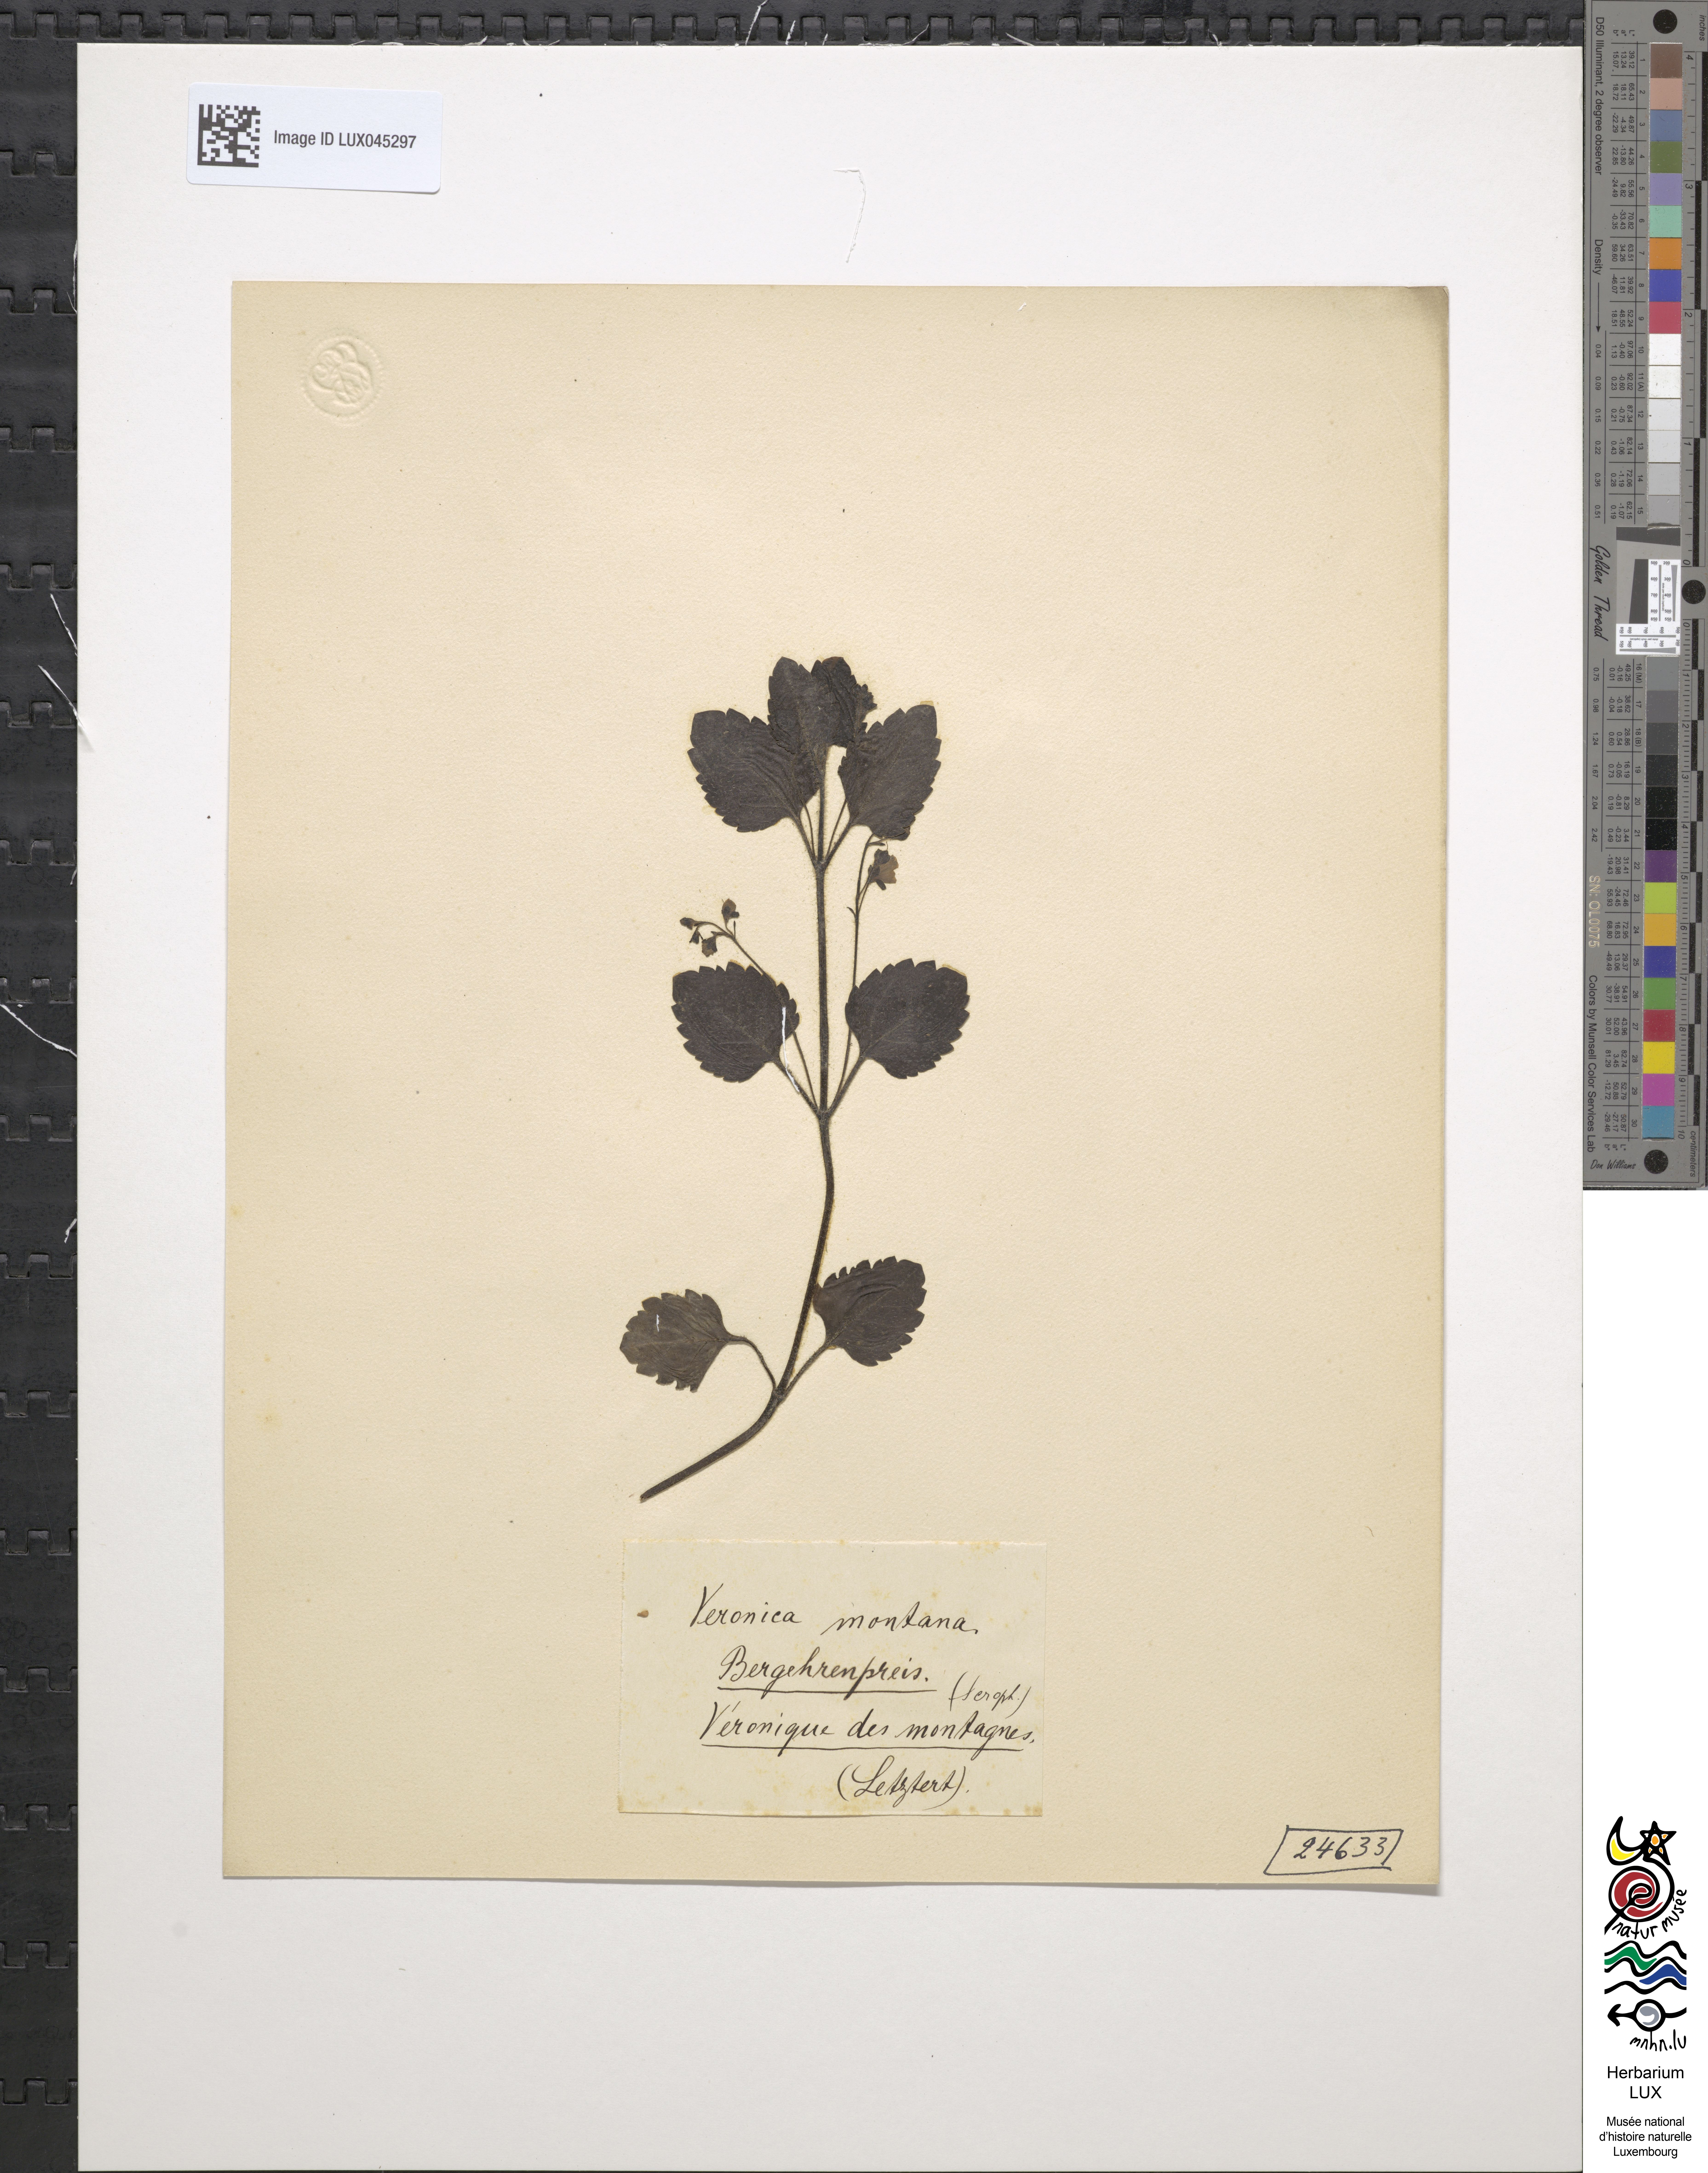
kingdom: Plantae
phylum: Tracheophyta
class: Magnoliopsida
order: Lamiales
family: Plantaginaceae
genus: Veronica
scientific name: Veronica montana
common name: Wood speedwell
